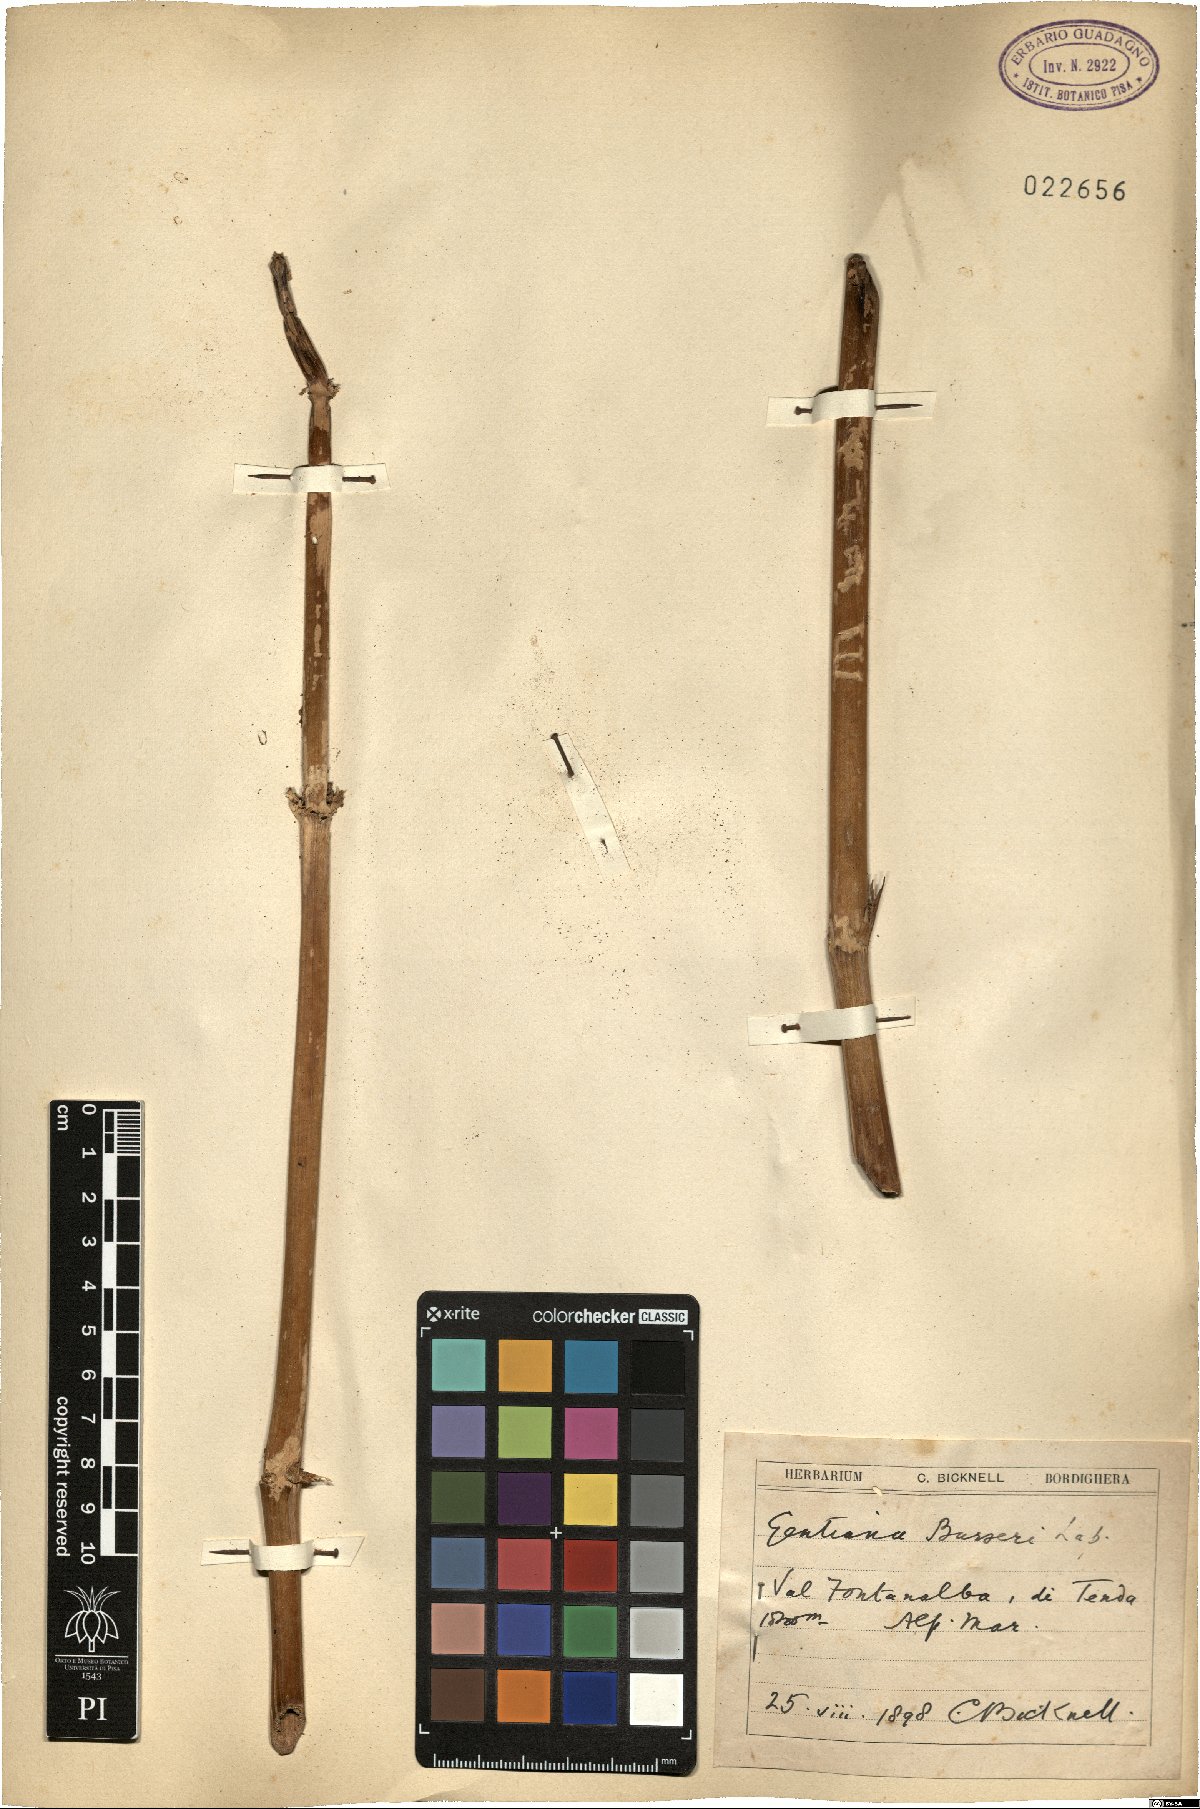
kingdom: Plantae
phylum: Tracheophyta
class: Magnoliopsida
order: Gentianales
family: Gentianaceae
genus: Gentiana
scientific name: Gentiana burseri
